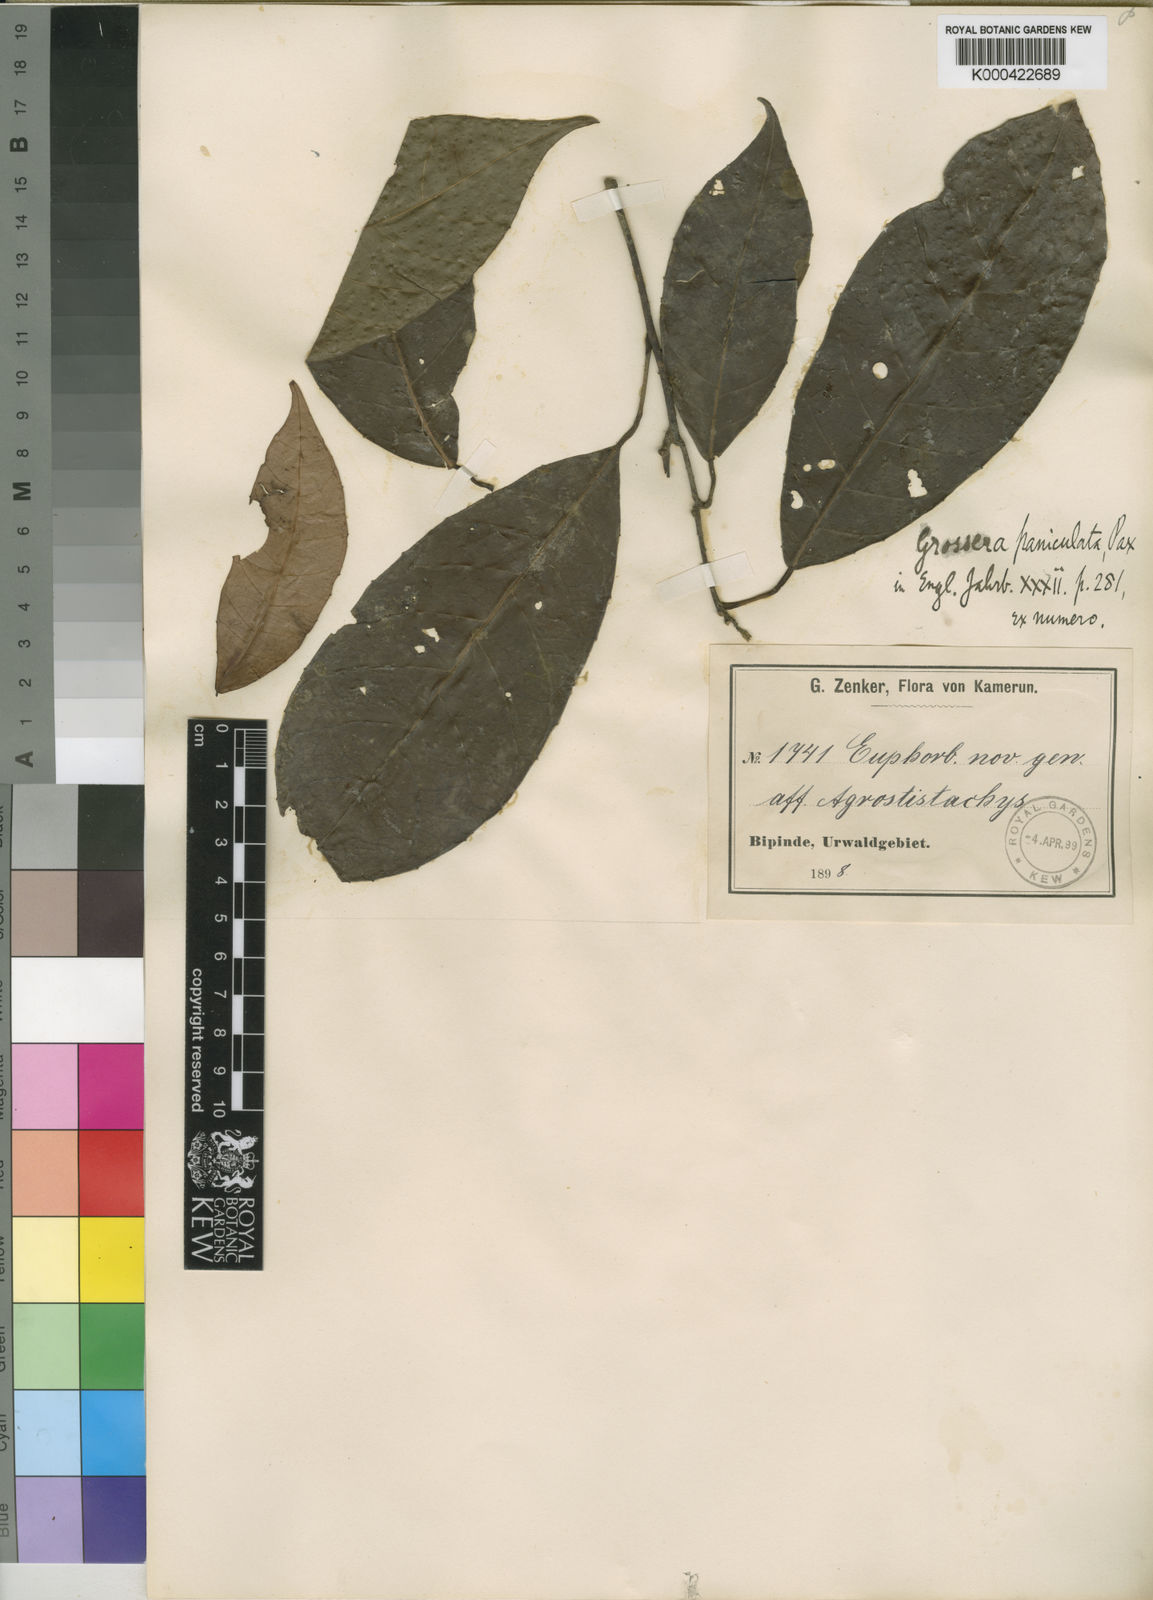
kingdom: Plantae
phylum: Tracheophyta
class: Magnoliopsida
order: Malpighiales
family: Euphorbiaceae
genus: Grossera
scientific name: Grossera paniculata
